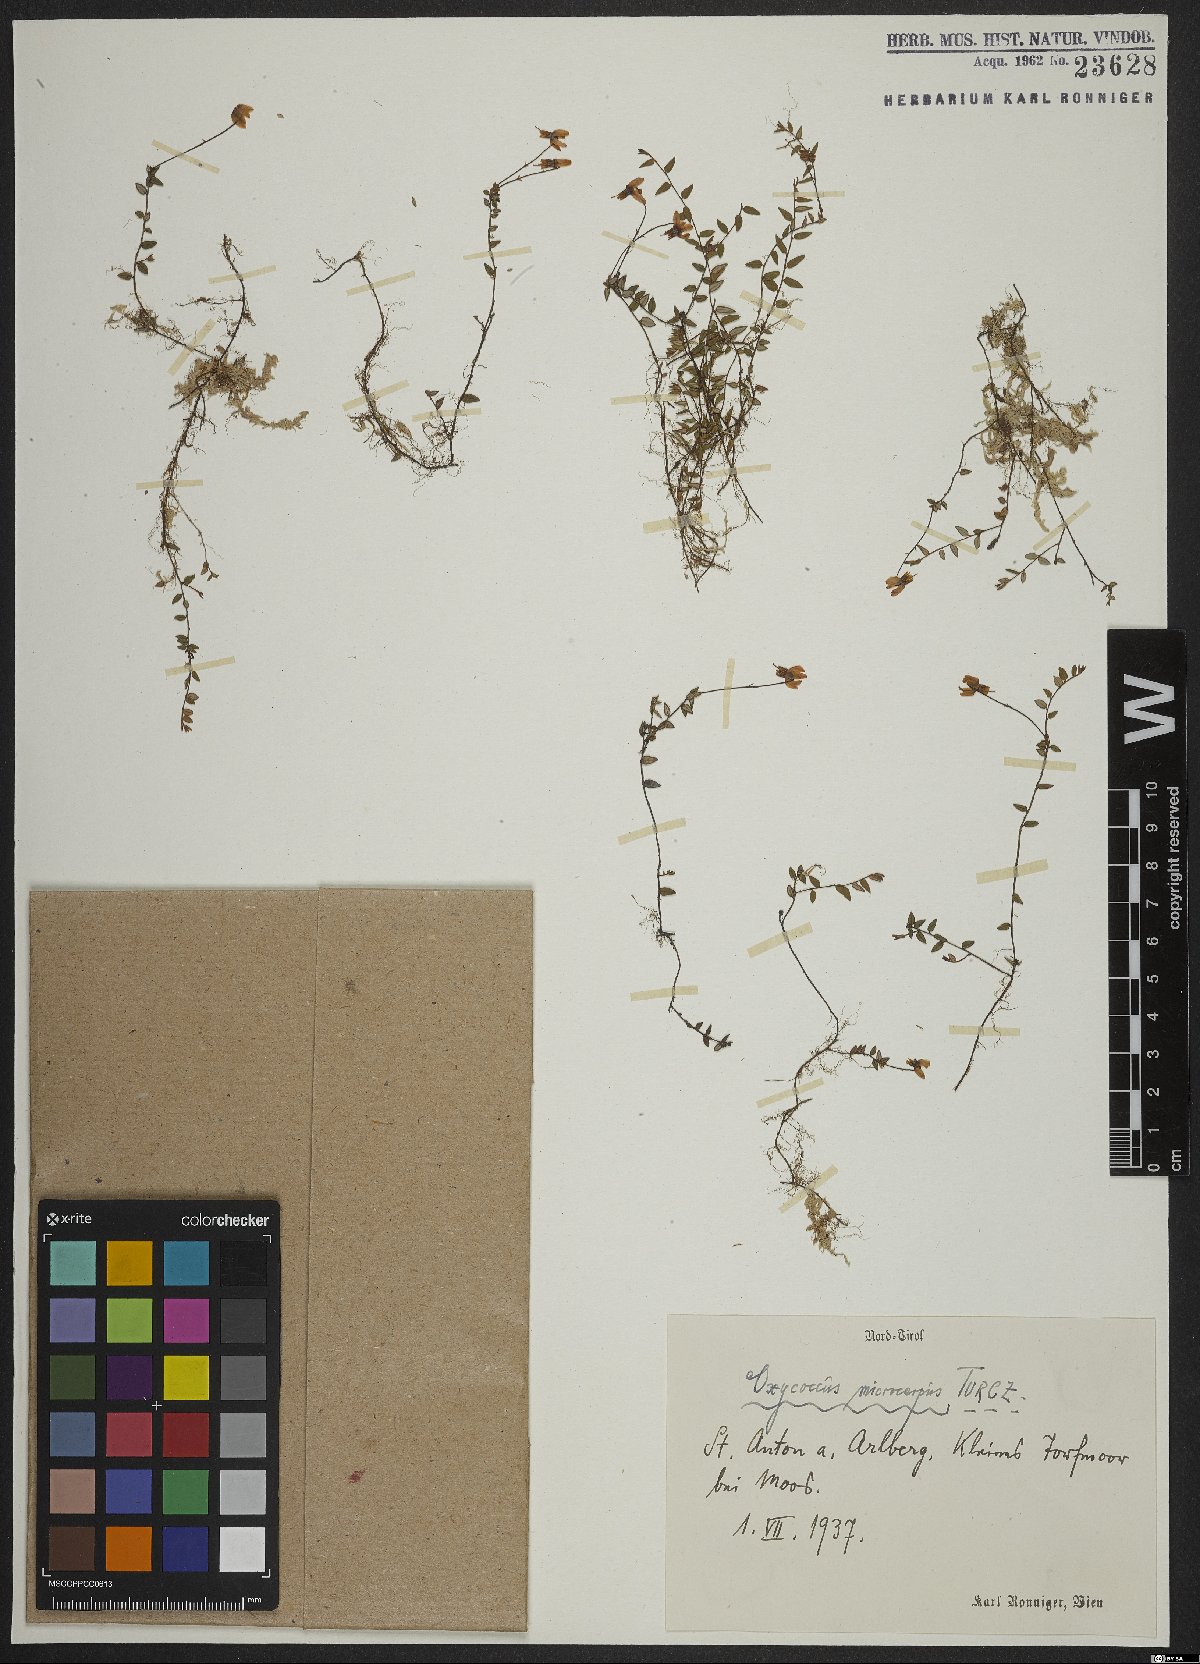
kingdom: Plantae
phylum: Tracheophyta
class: Magnoliopsida
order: Ericales
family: Ericaceae
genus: Vaccinium
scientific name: Vaccinium microcarpum
